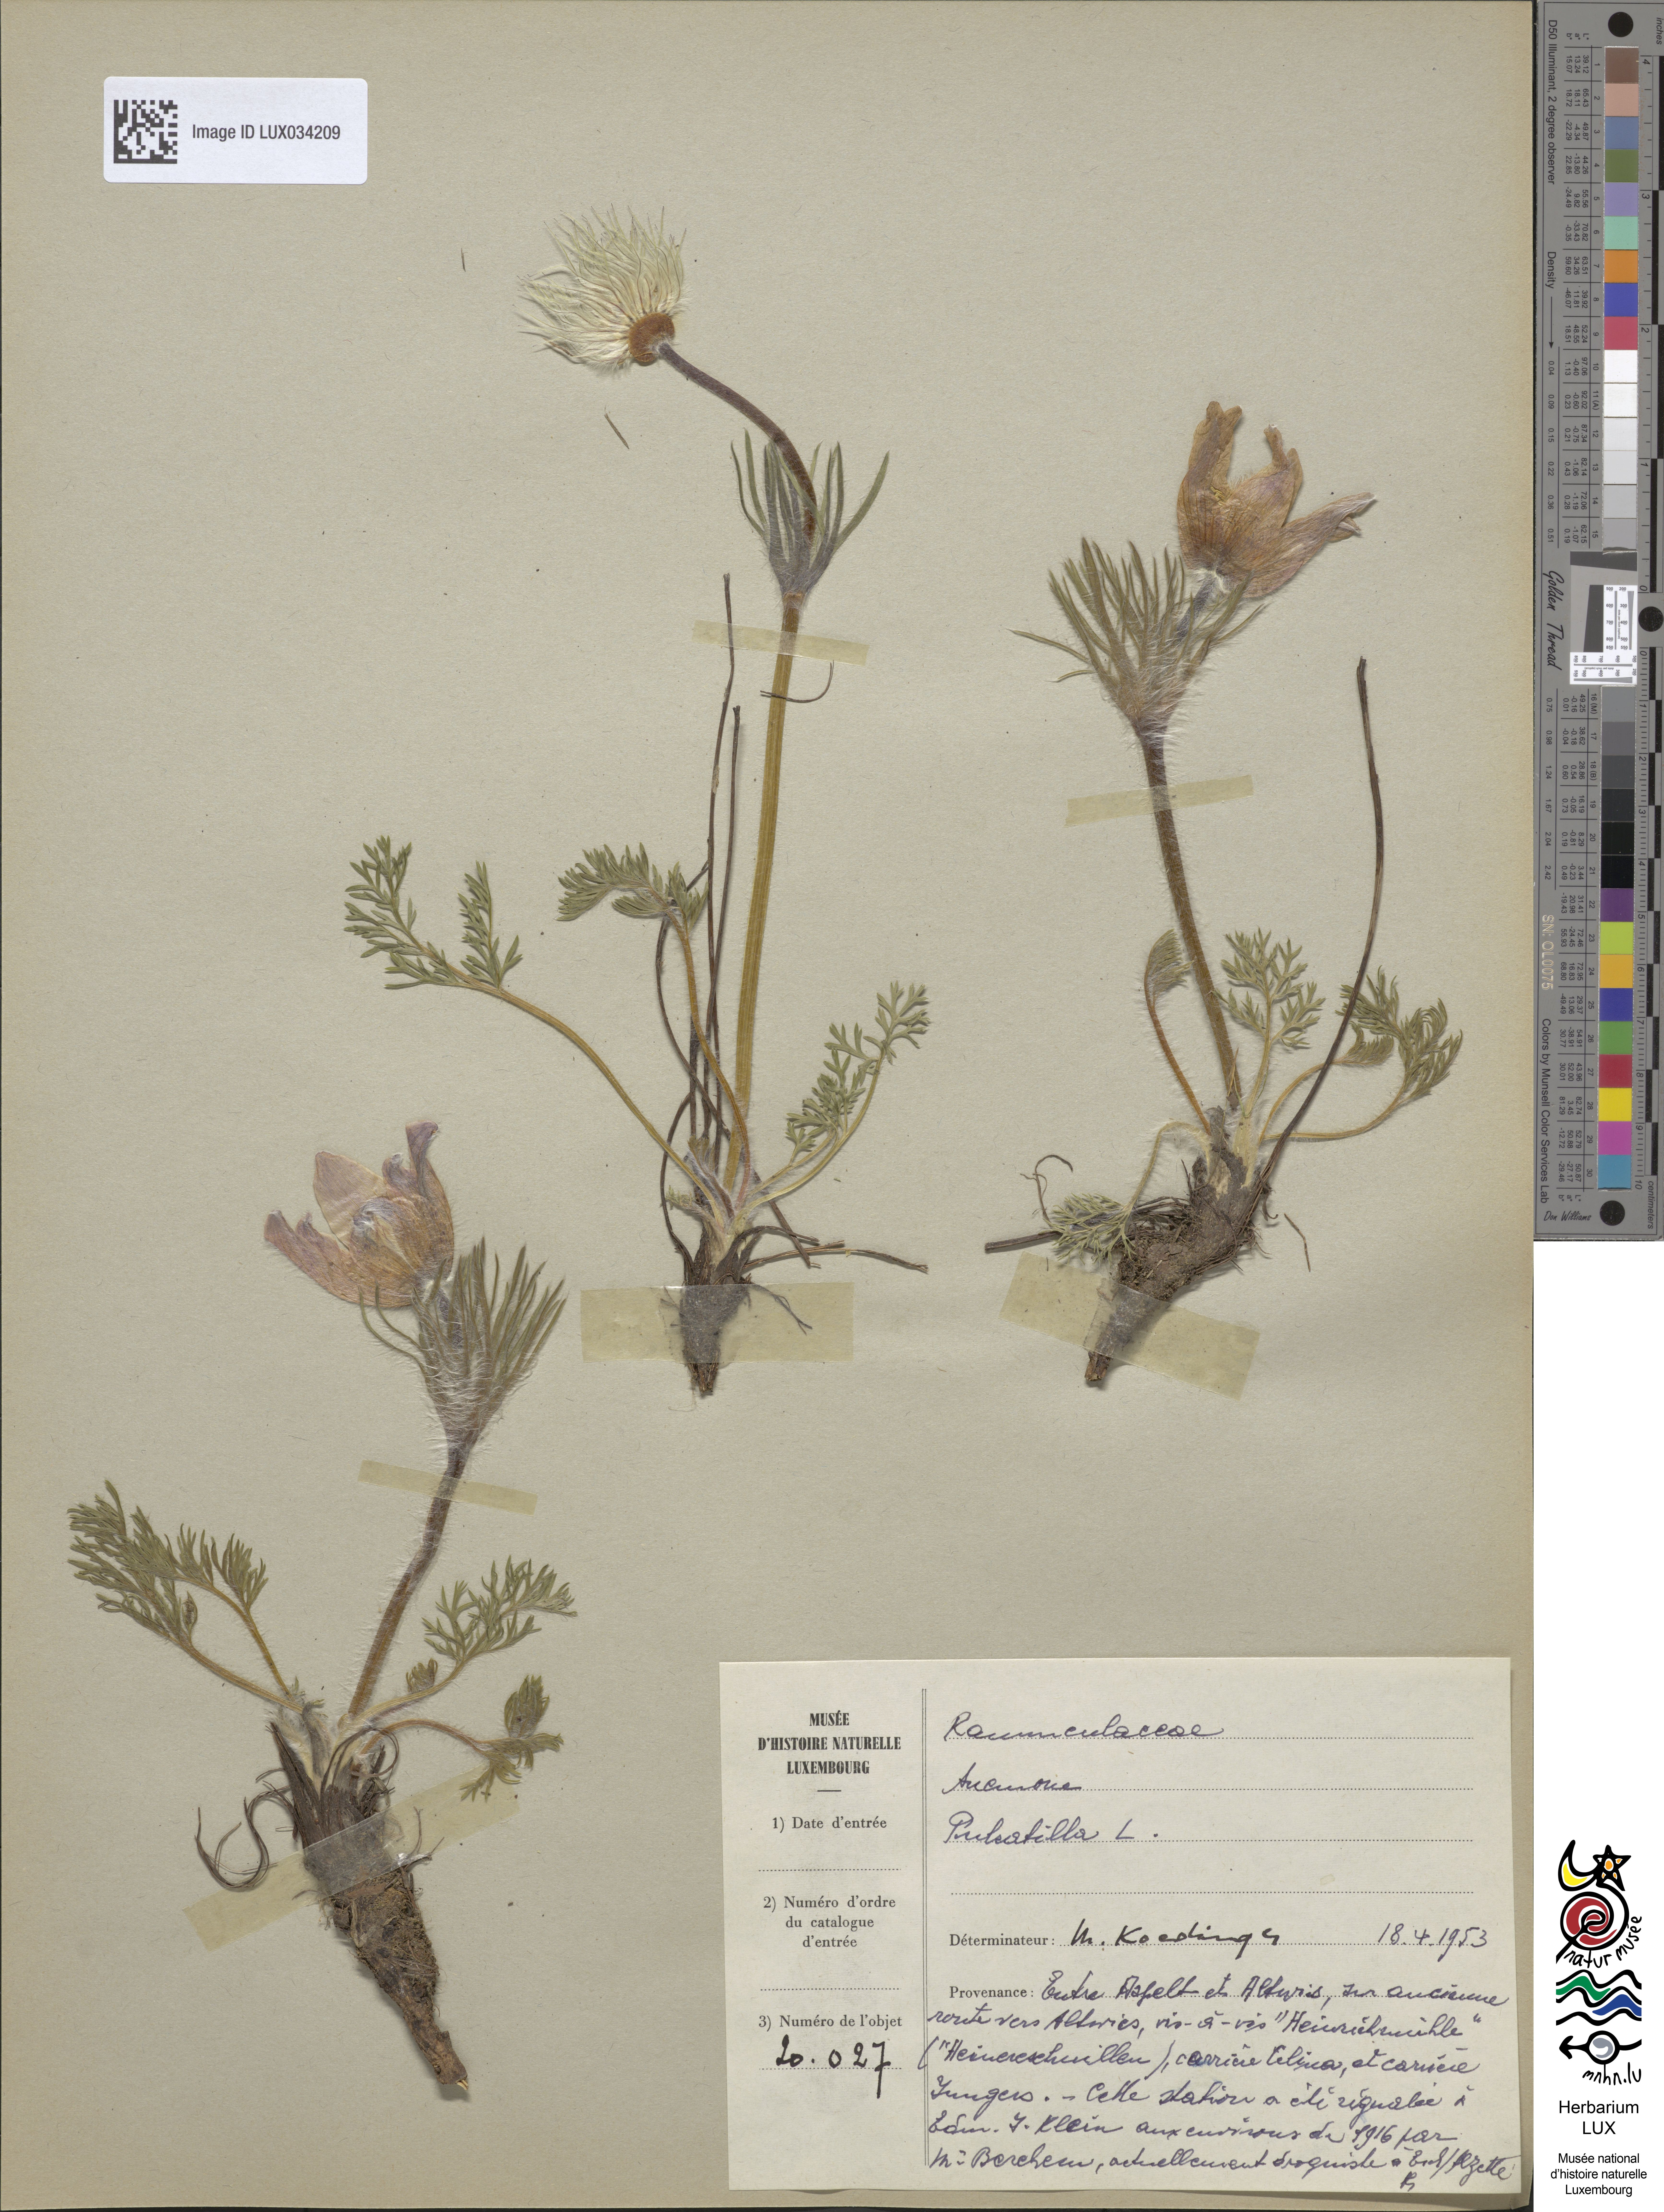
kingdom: Plantae
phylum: Tracheophyta
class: Magnoliopsida
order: Ranunculales
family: Ranunculaceae
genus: Pulsatilla
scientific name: Pulsatilla vulgaris
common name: Pasqueflower
